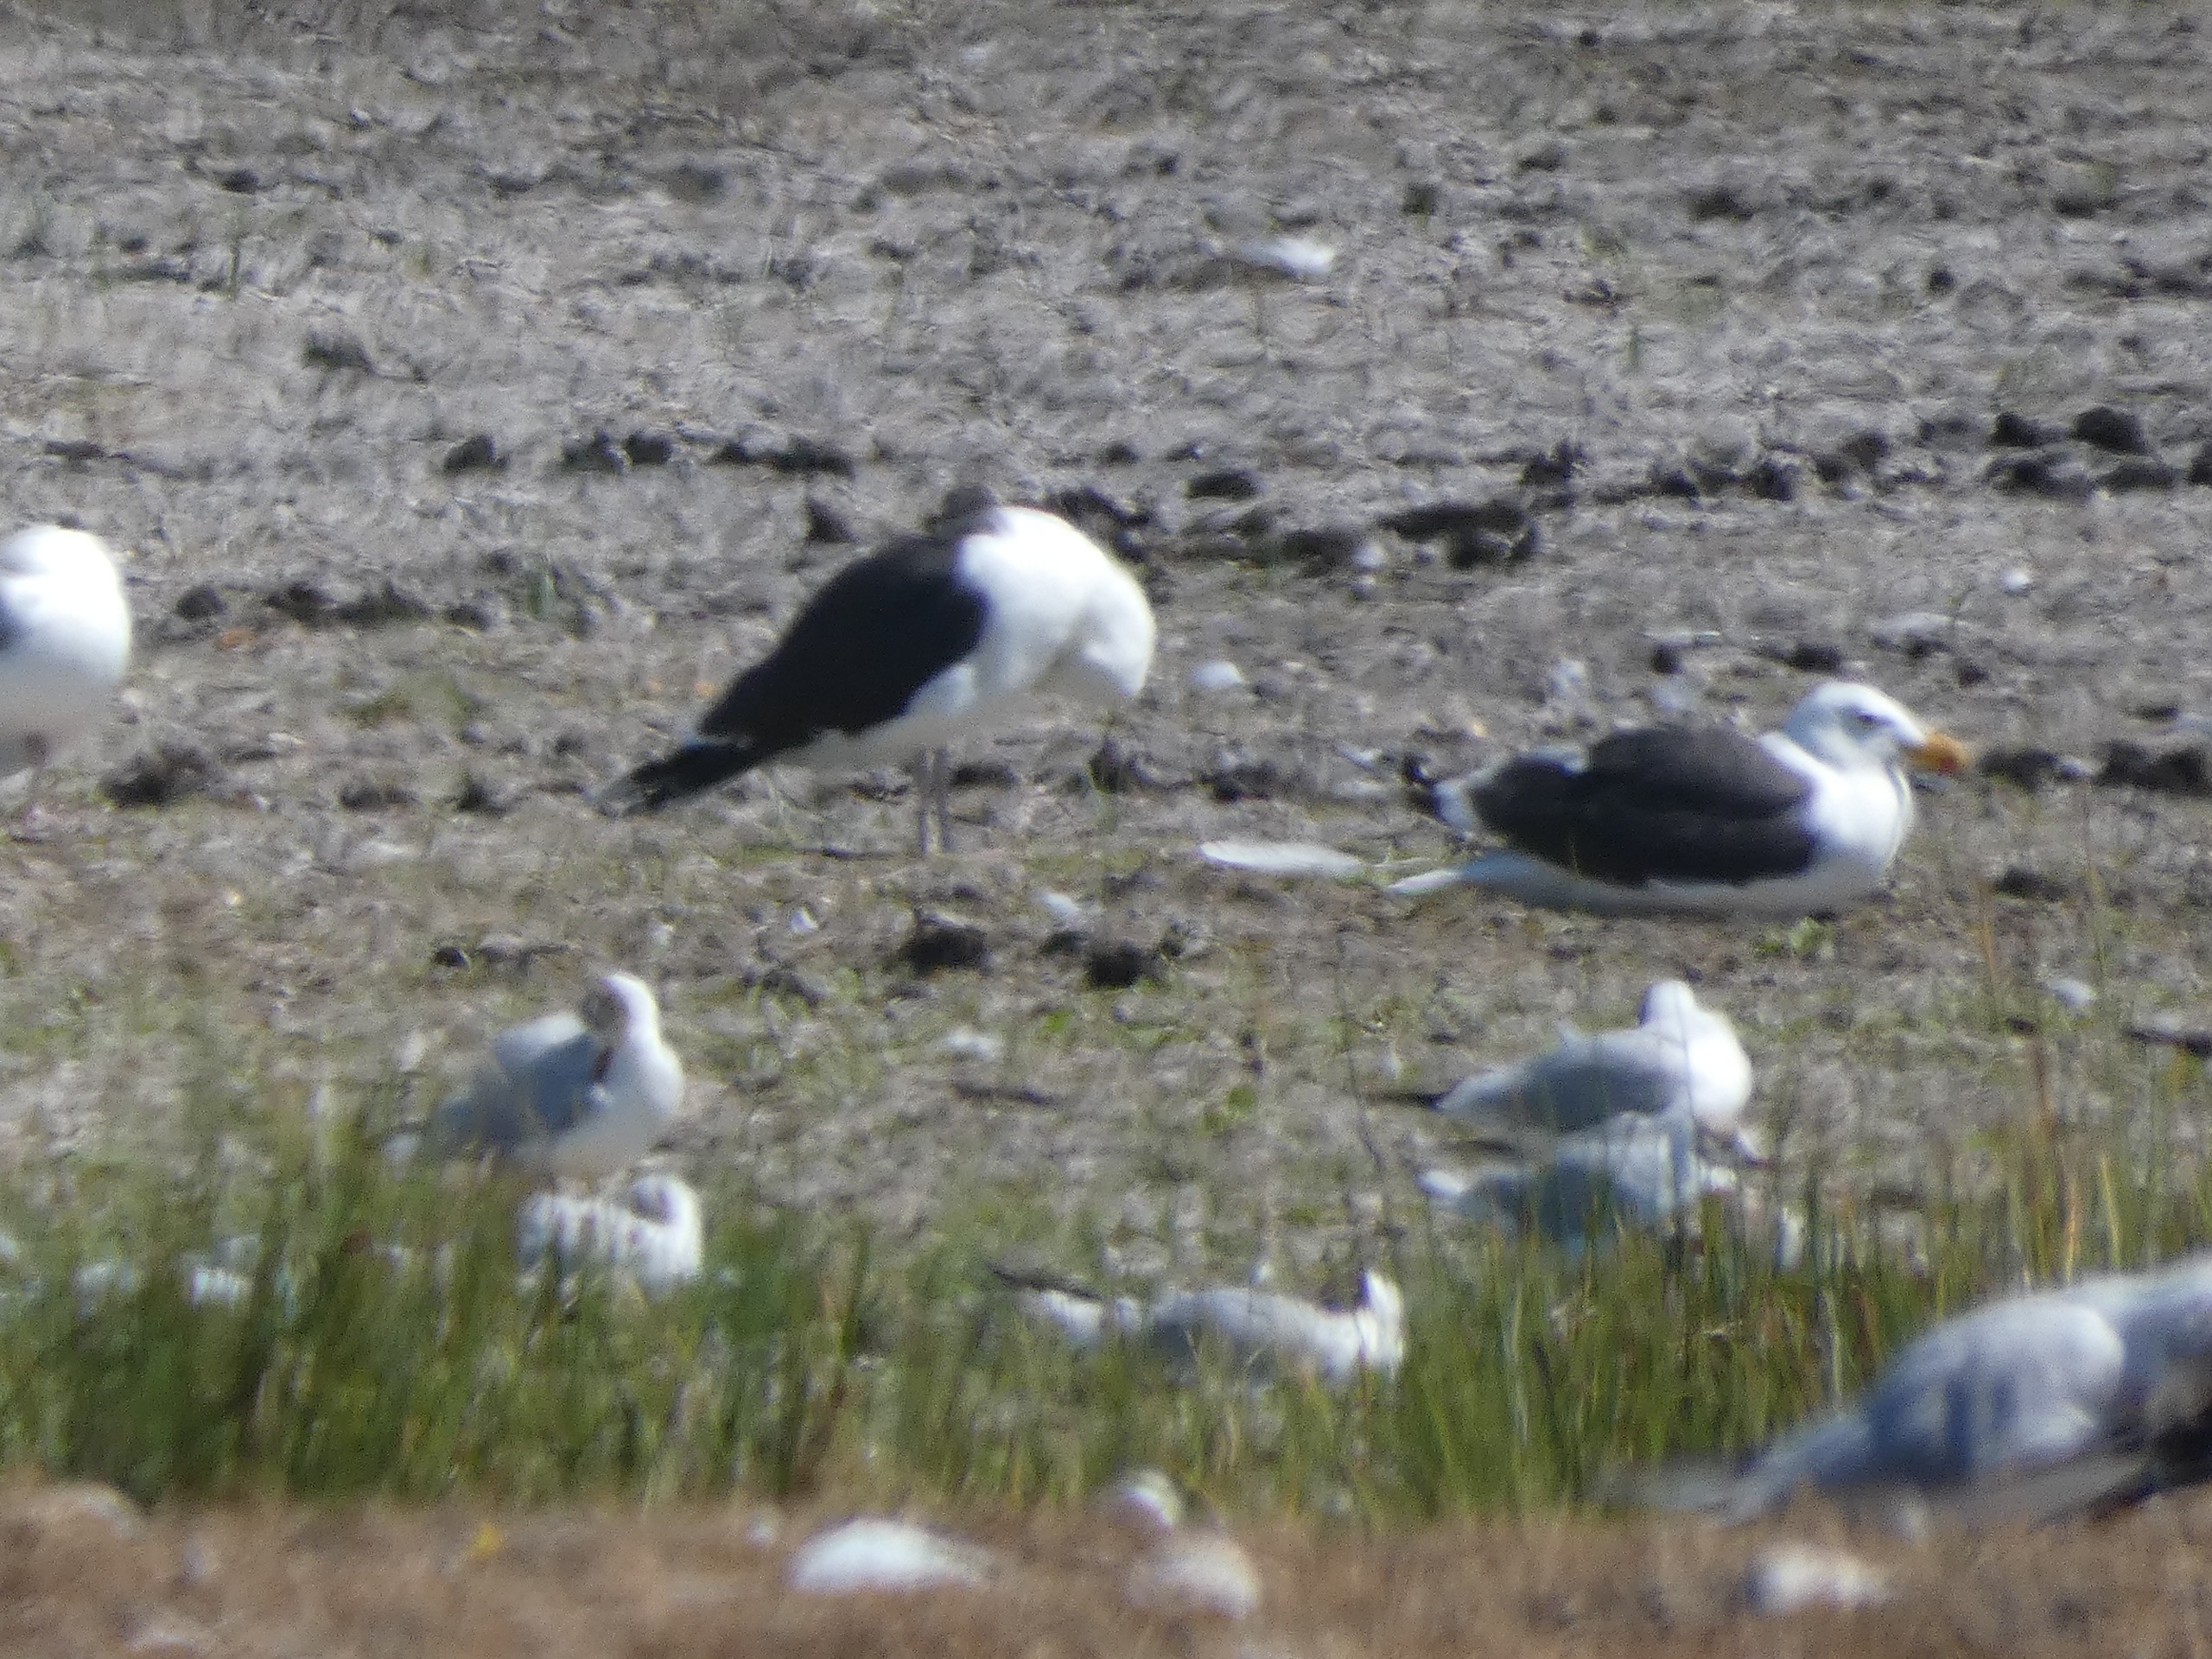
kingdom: Animalia
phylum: Chordata
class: Aves
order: Charadriiformes
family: Laridae
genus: Larus
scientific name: Larus marinus
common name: Svartbag
